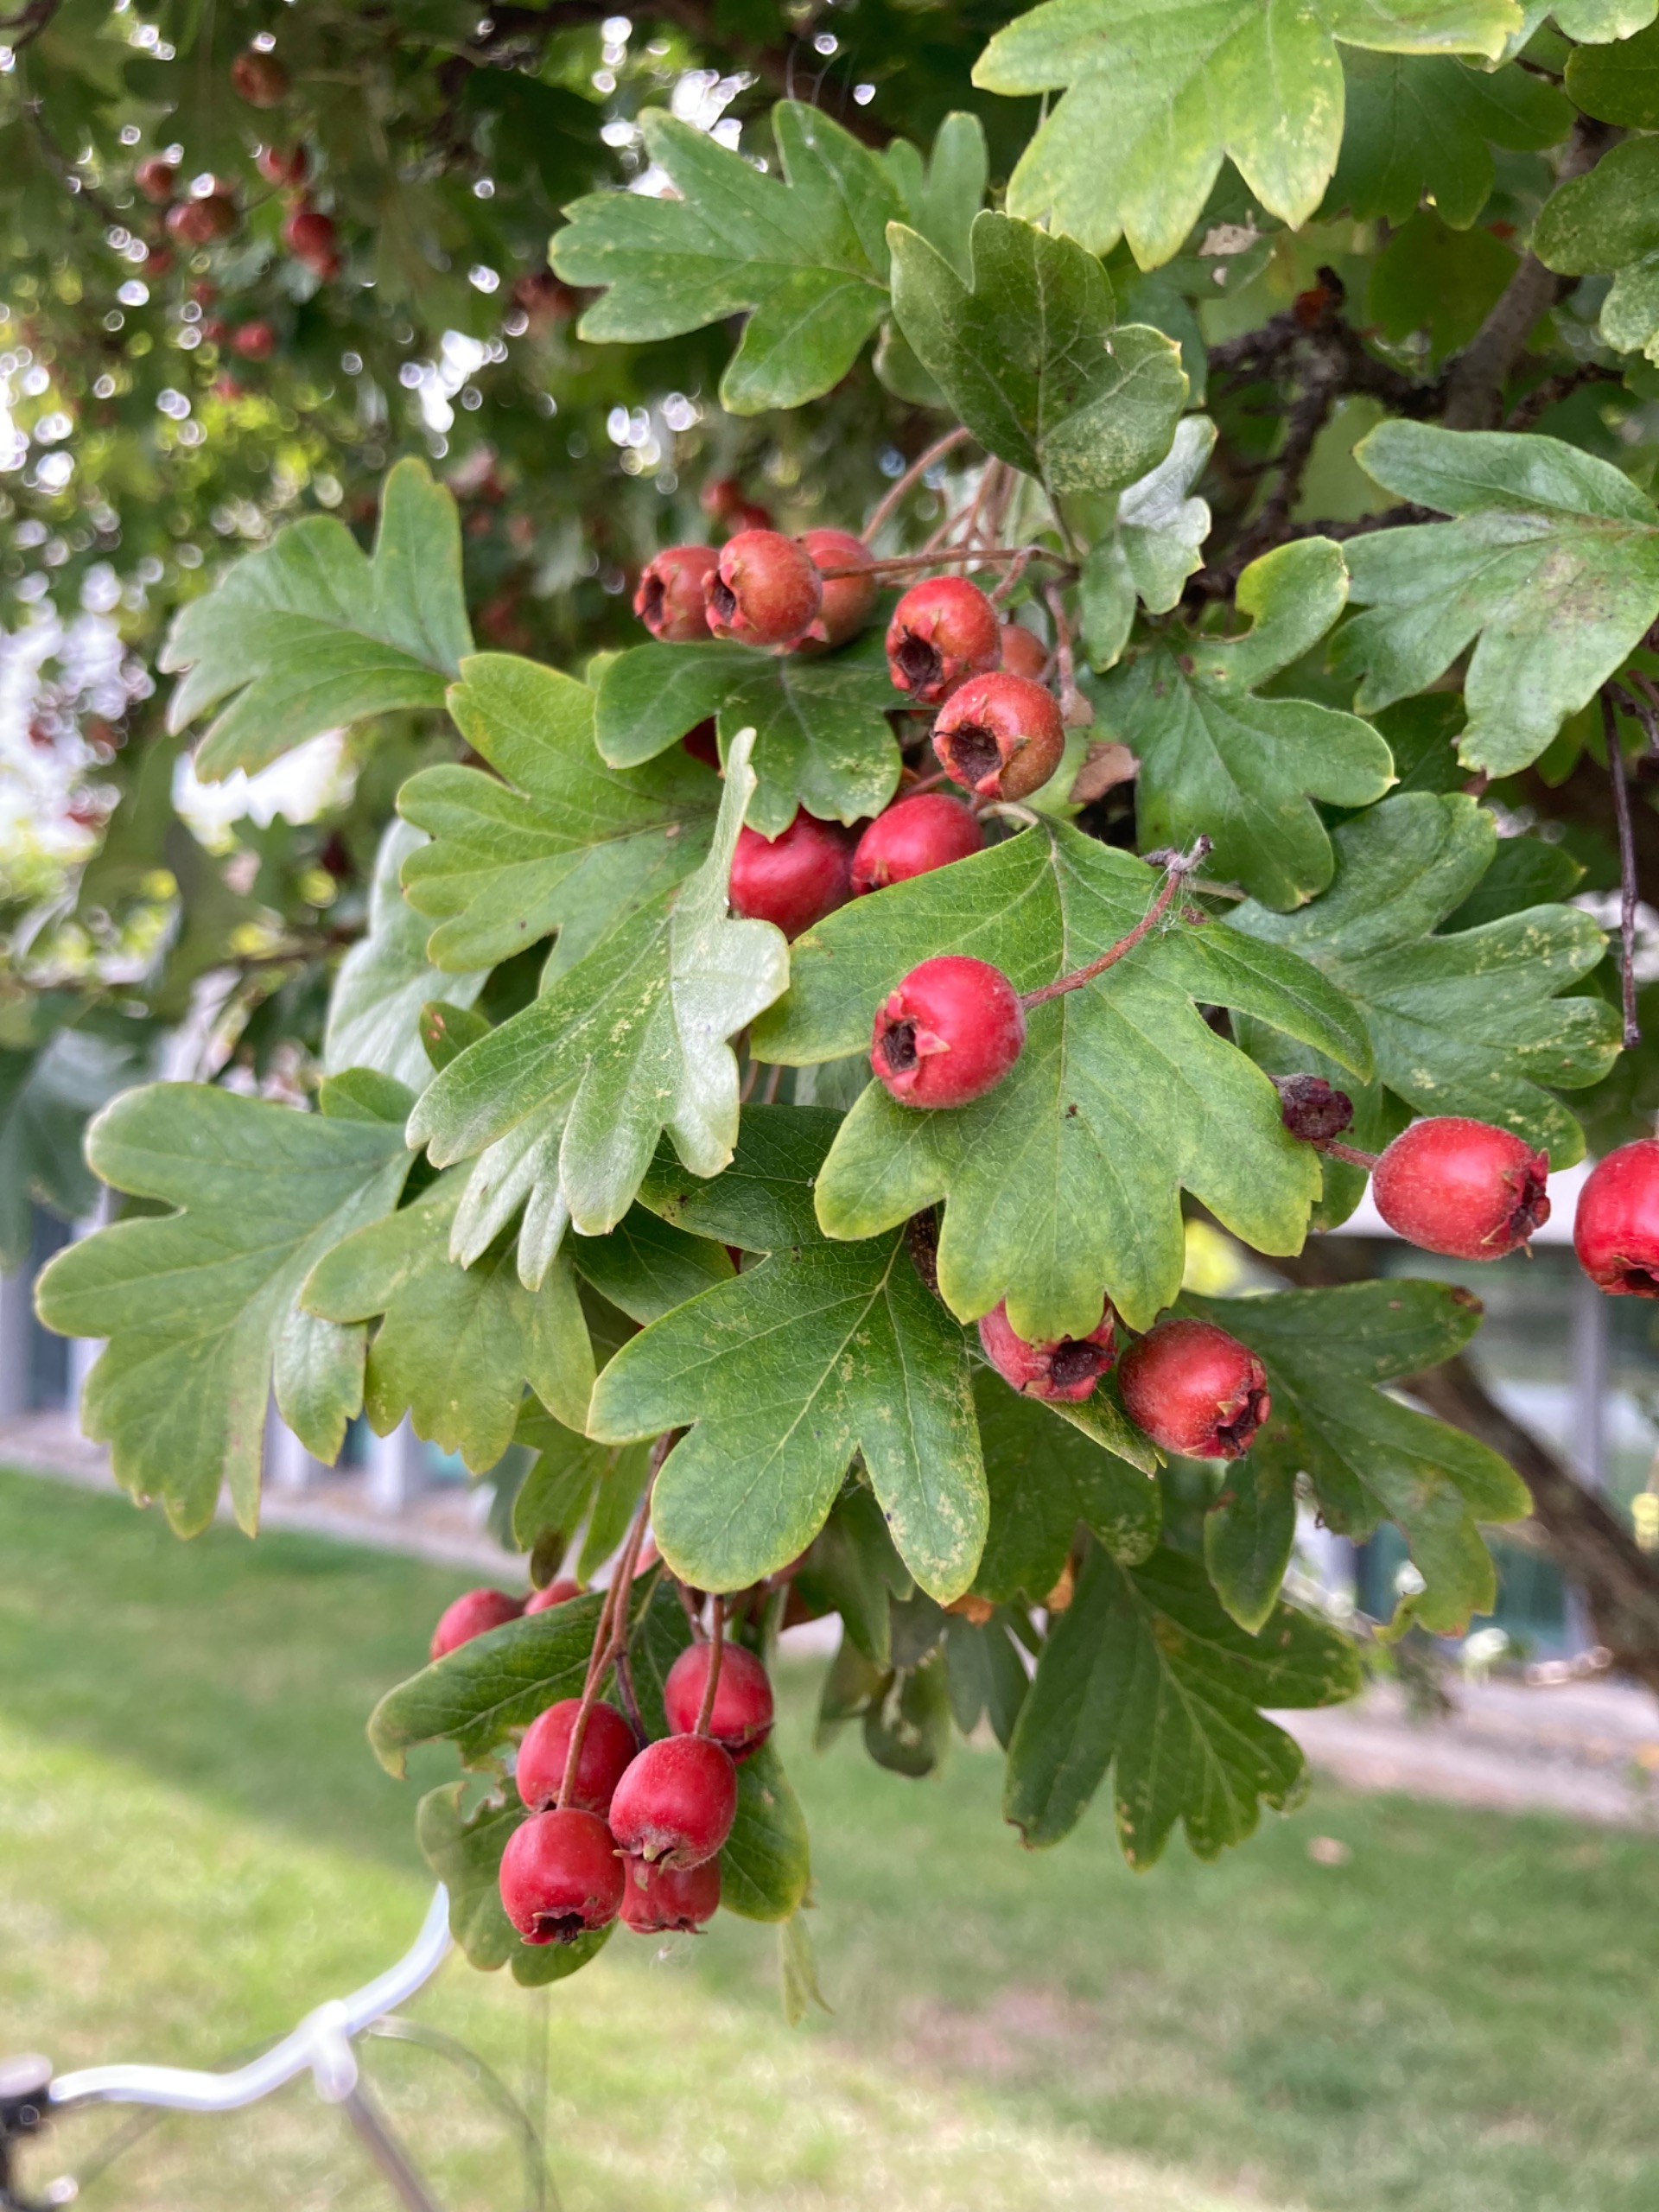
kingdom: Plantae
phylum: Tracheophyta
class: Magnoliopsida
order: Rosales
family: Rosaceae
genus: Crataegus
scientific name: Crataegus monogyna
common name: Engriflet hvidtjørn
